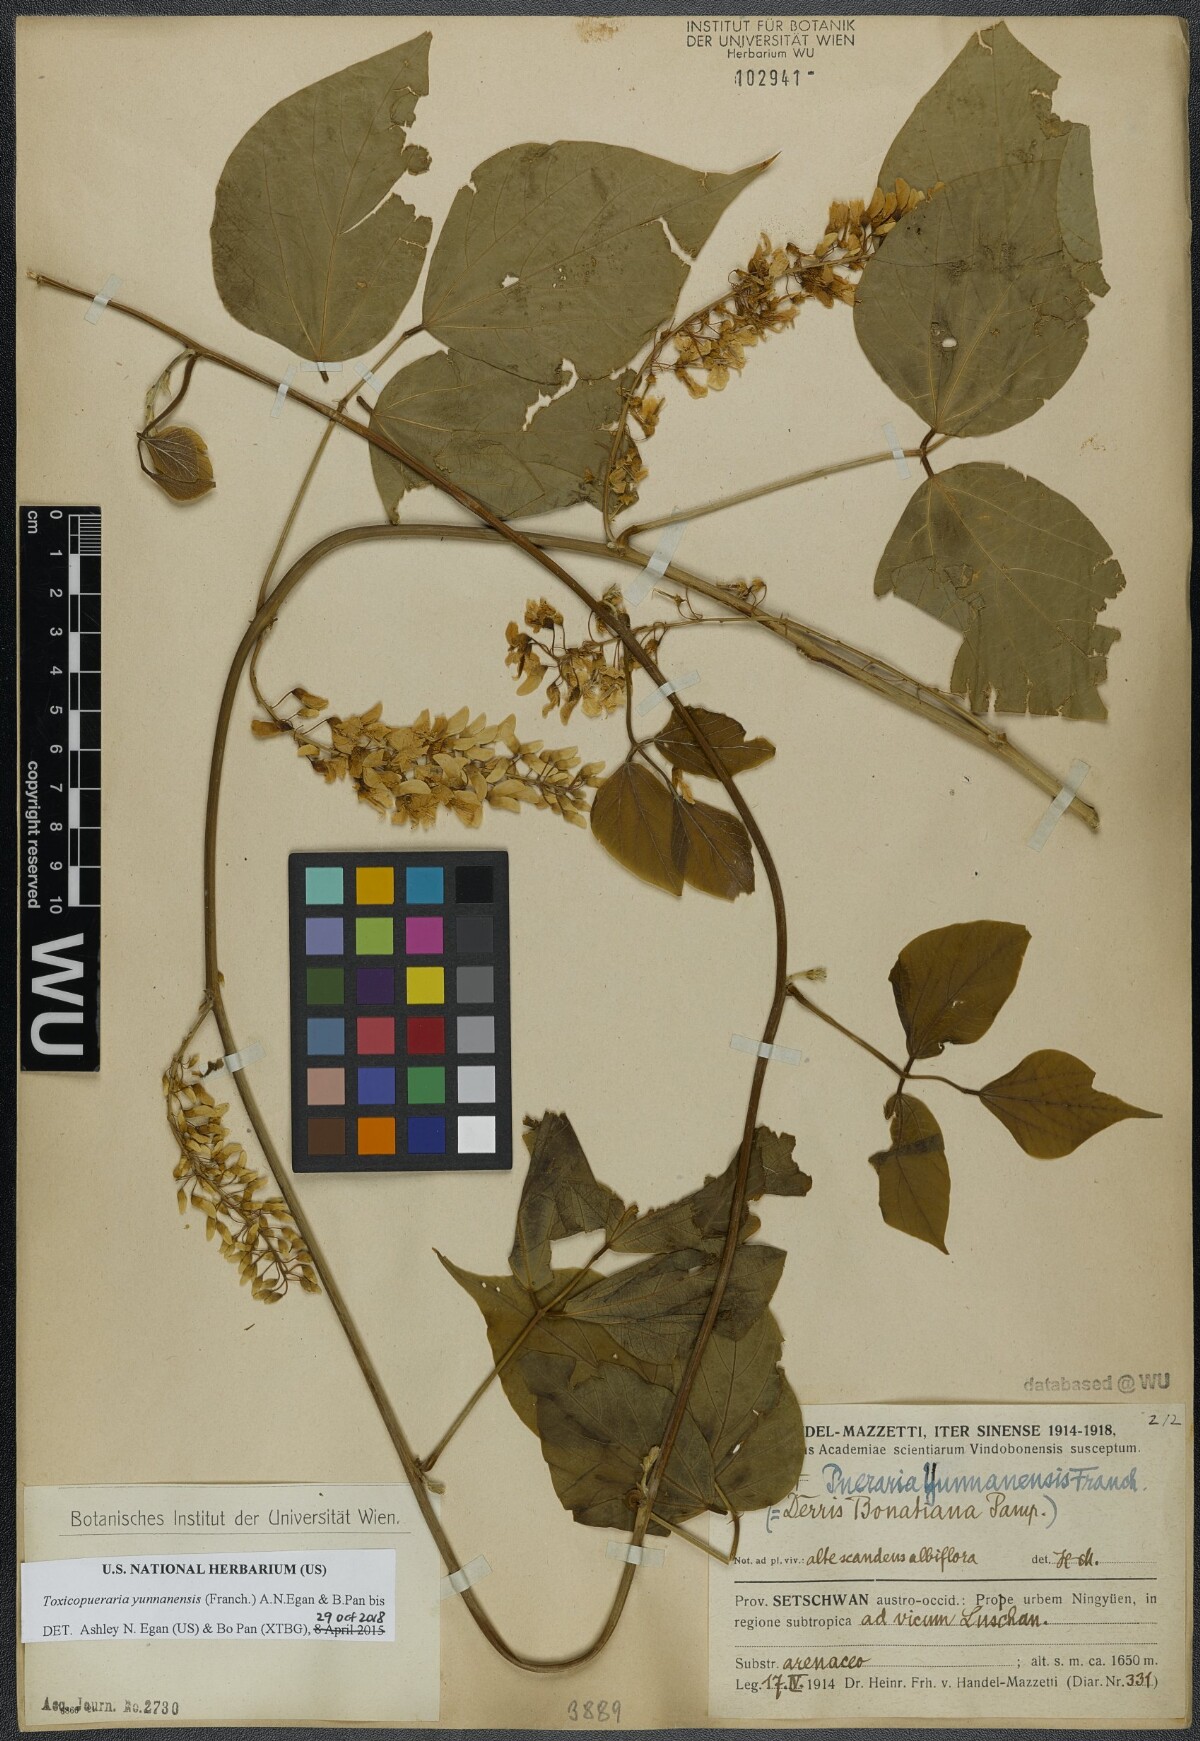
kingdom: Plantae
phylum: Tracheophyta
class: Magnoliopsida
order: Fabales
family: Fabaceae
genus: Toxicopueraria
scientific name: Toxicopueraria yunnanensis
